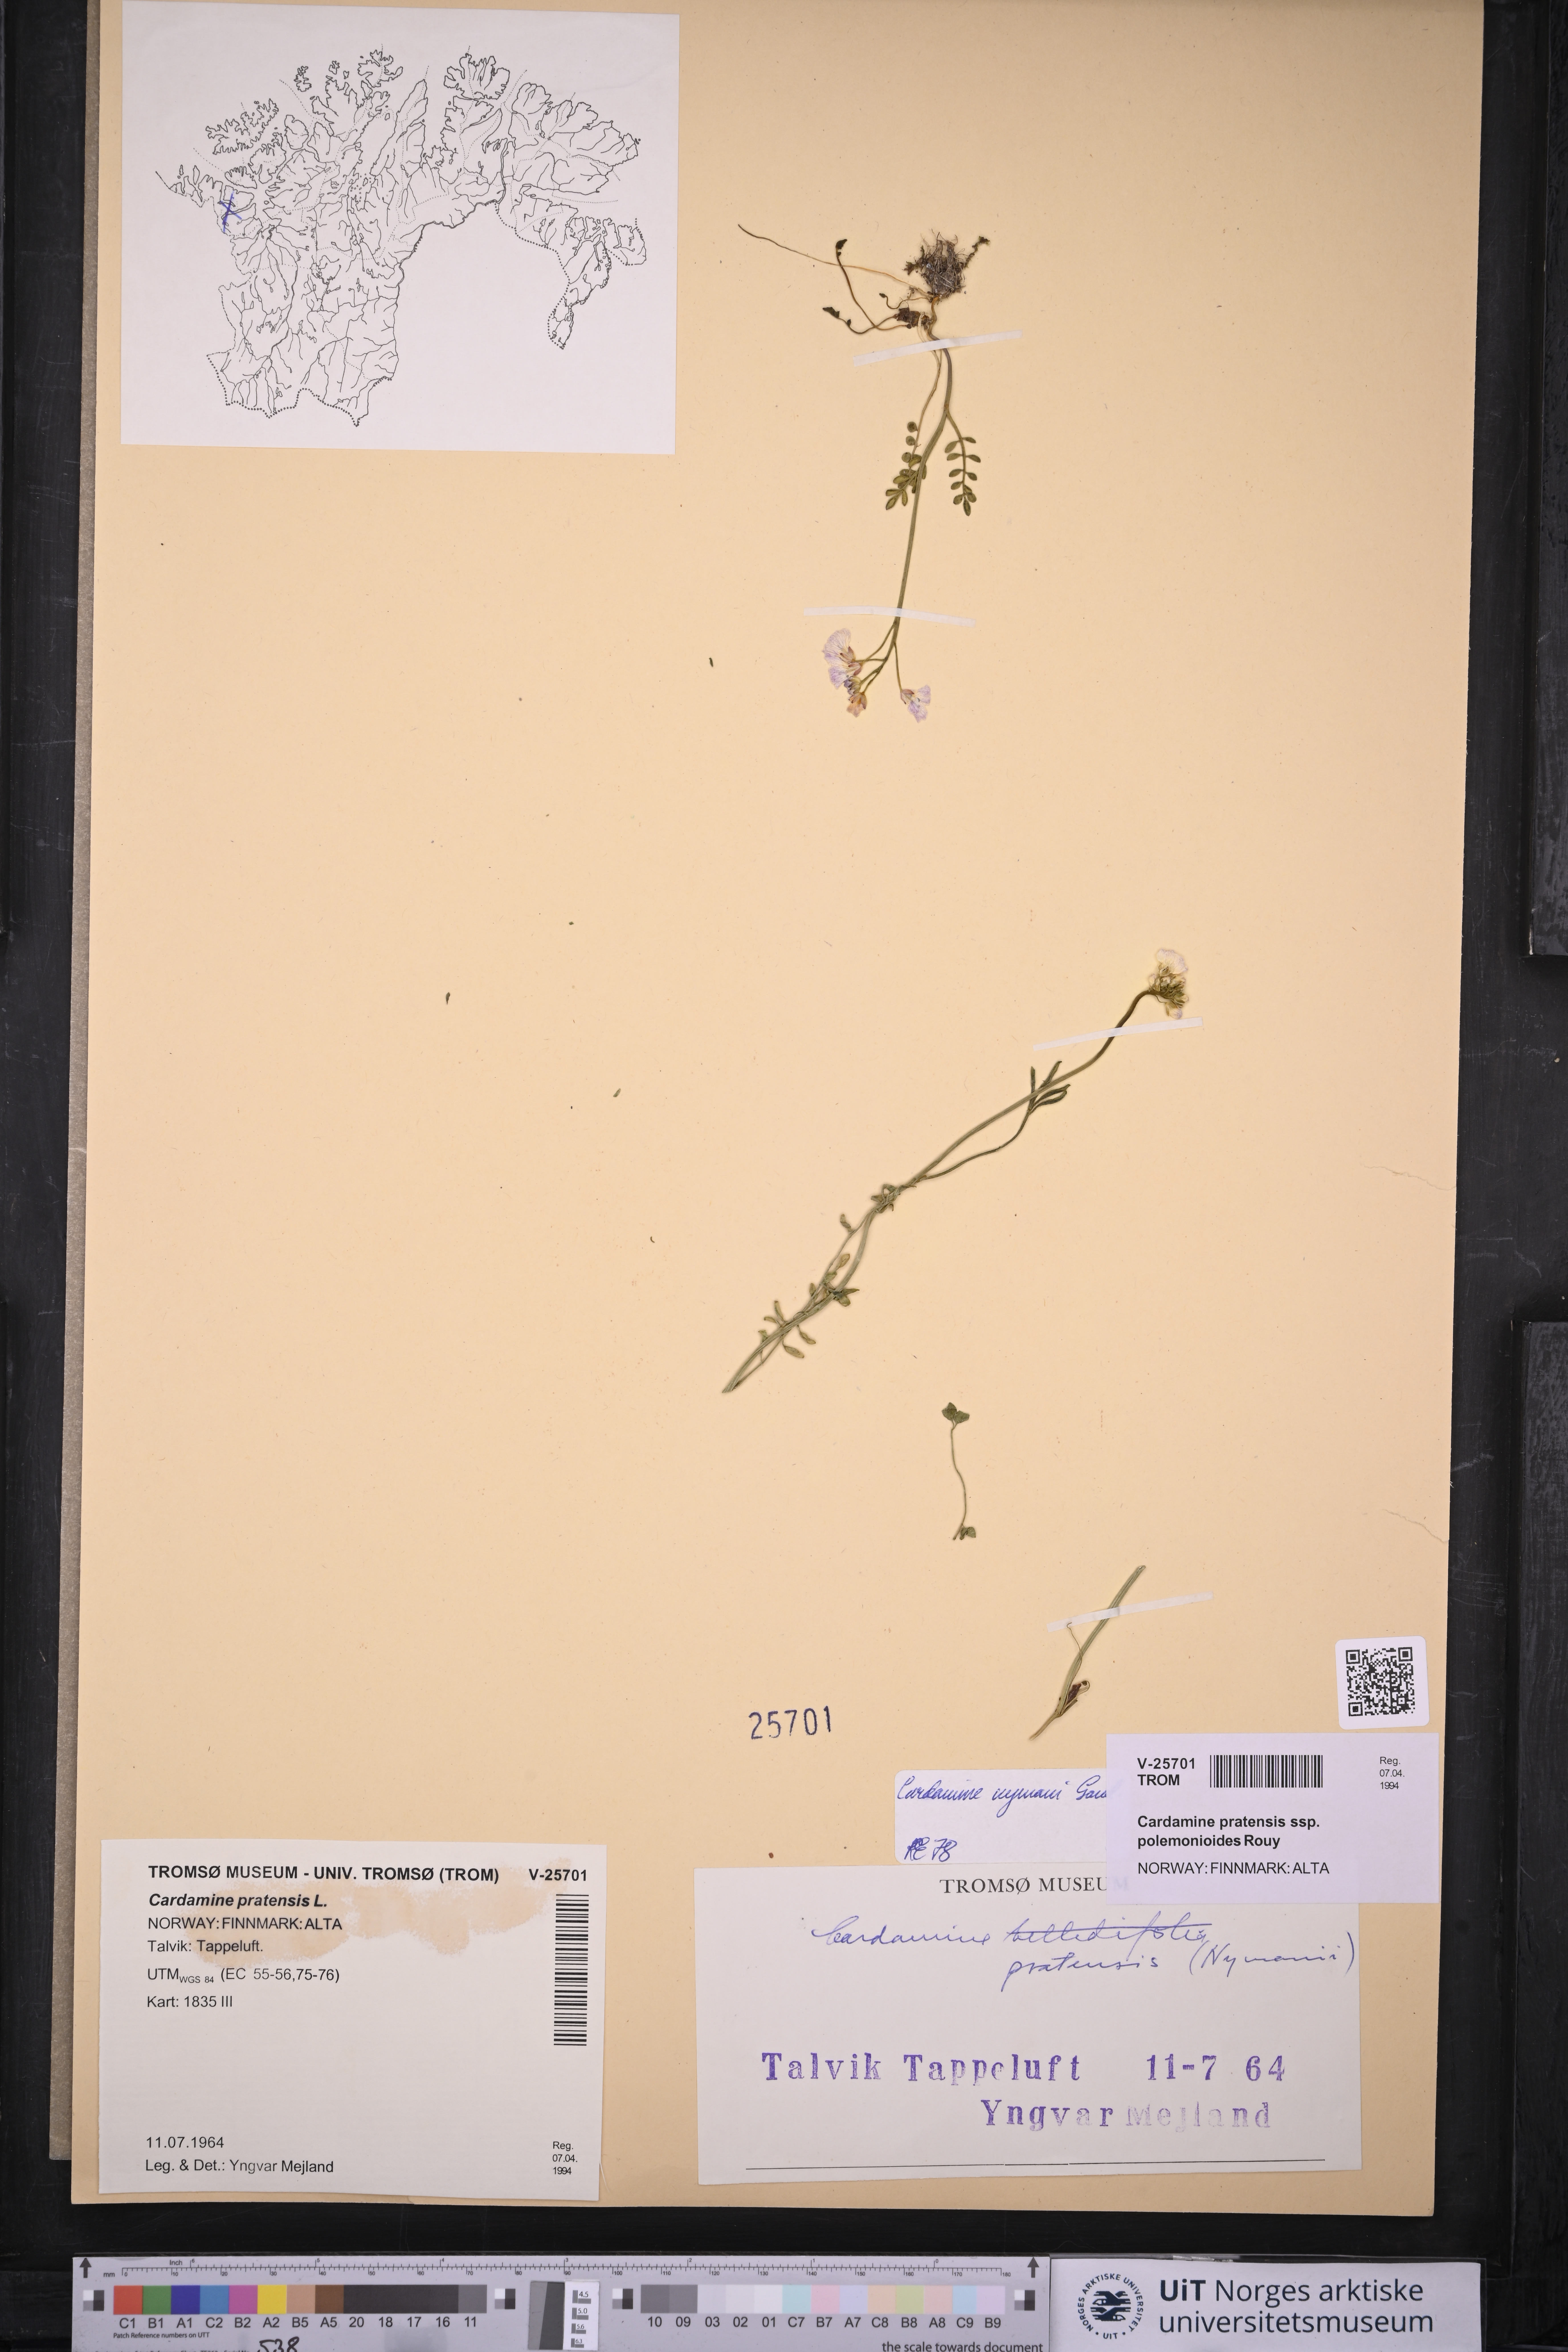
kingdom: Plantae
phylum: Tracheophyta
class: Magnoliopsida
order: Brassicales
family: Brassicaceae
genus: Cardamine
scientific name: Cardamine nymanii
